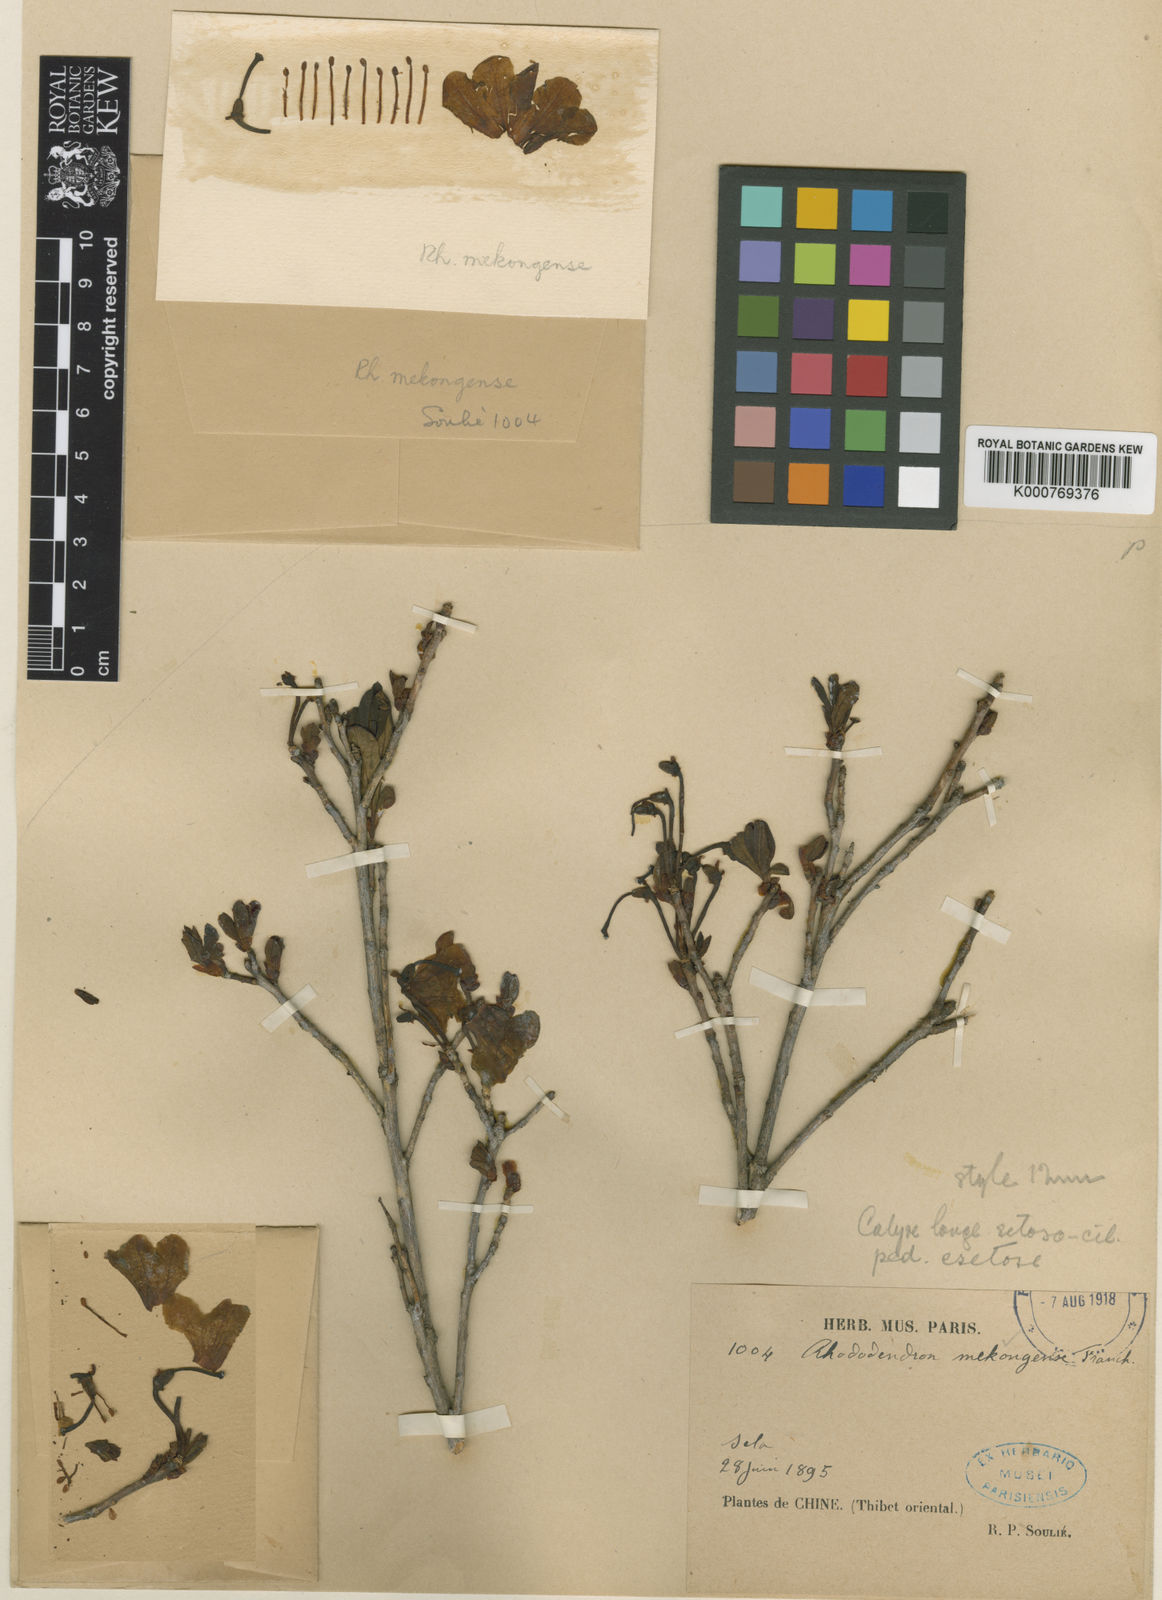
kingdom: Plantae
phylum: Tracheophyta
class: Magnoliopsida
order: Ericales
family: Ericaceae
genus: Rhododendron
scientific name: Rhododendron mekongense
